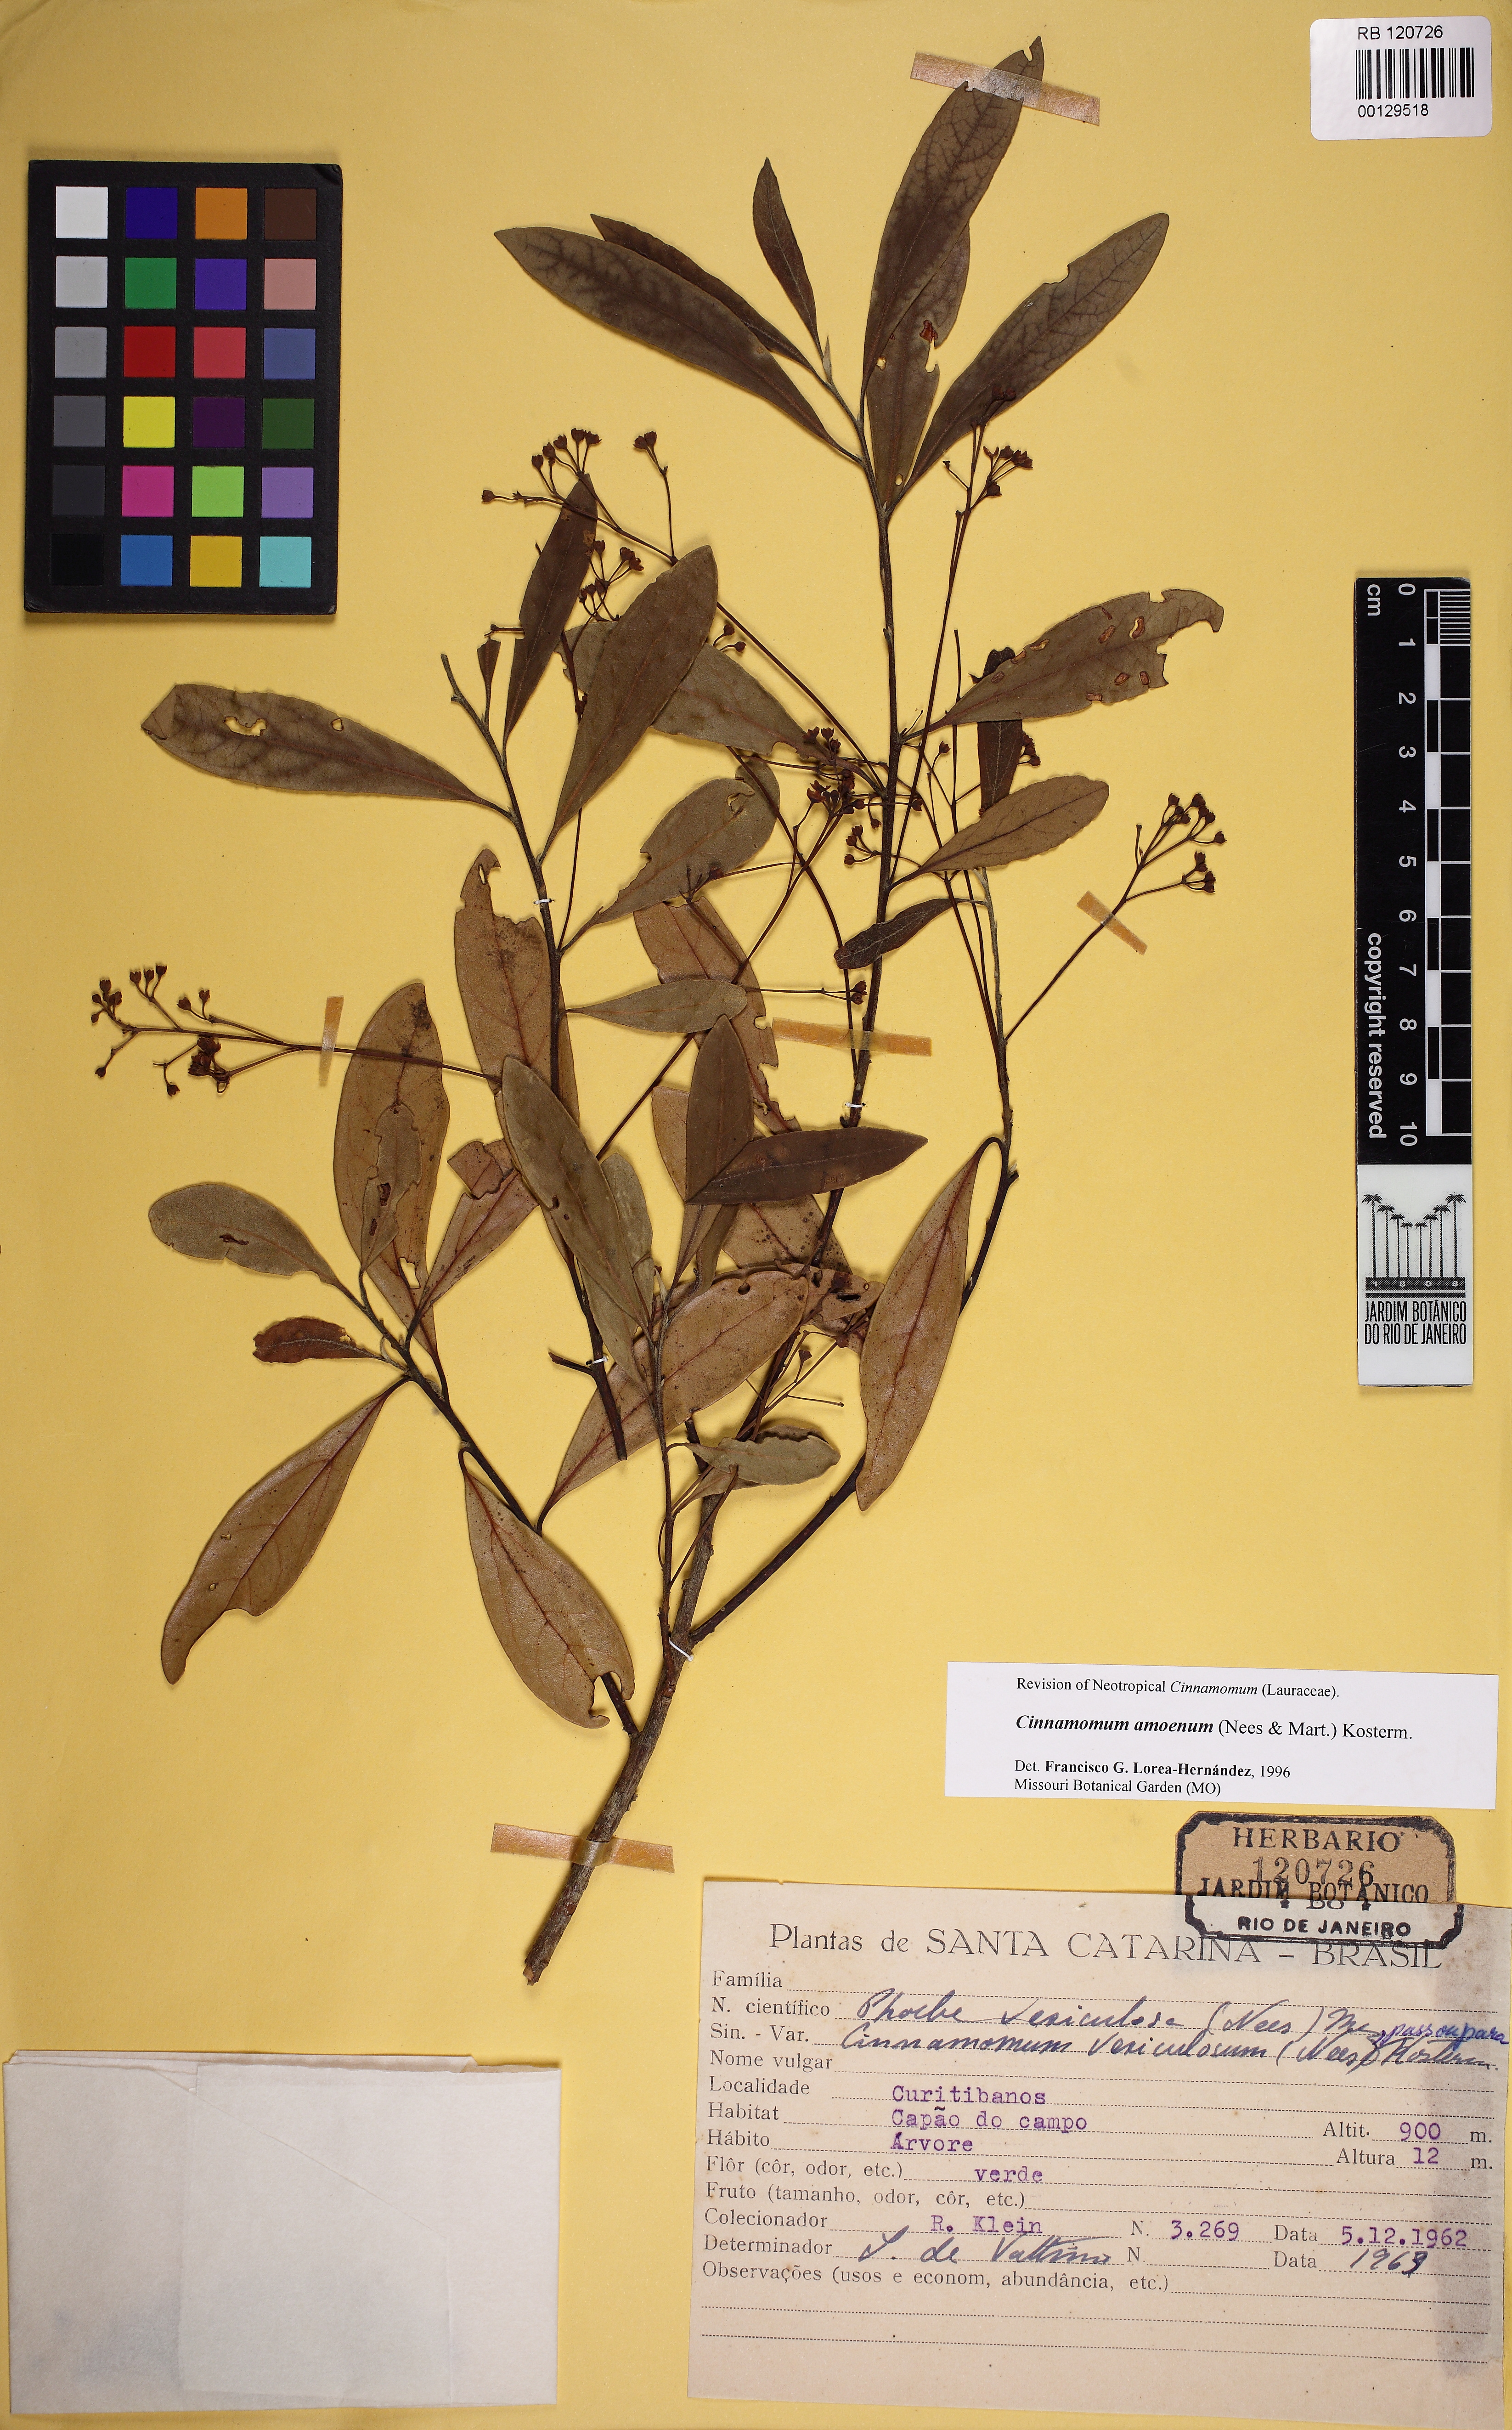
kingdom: Plantae
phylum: Tracheophyta
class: Magnoliopsida
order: Laurales
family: Lauraceae
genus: Cinnamomum
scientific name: Cinnamomum camphora
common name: Camphortree
